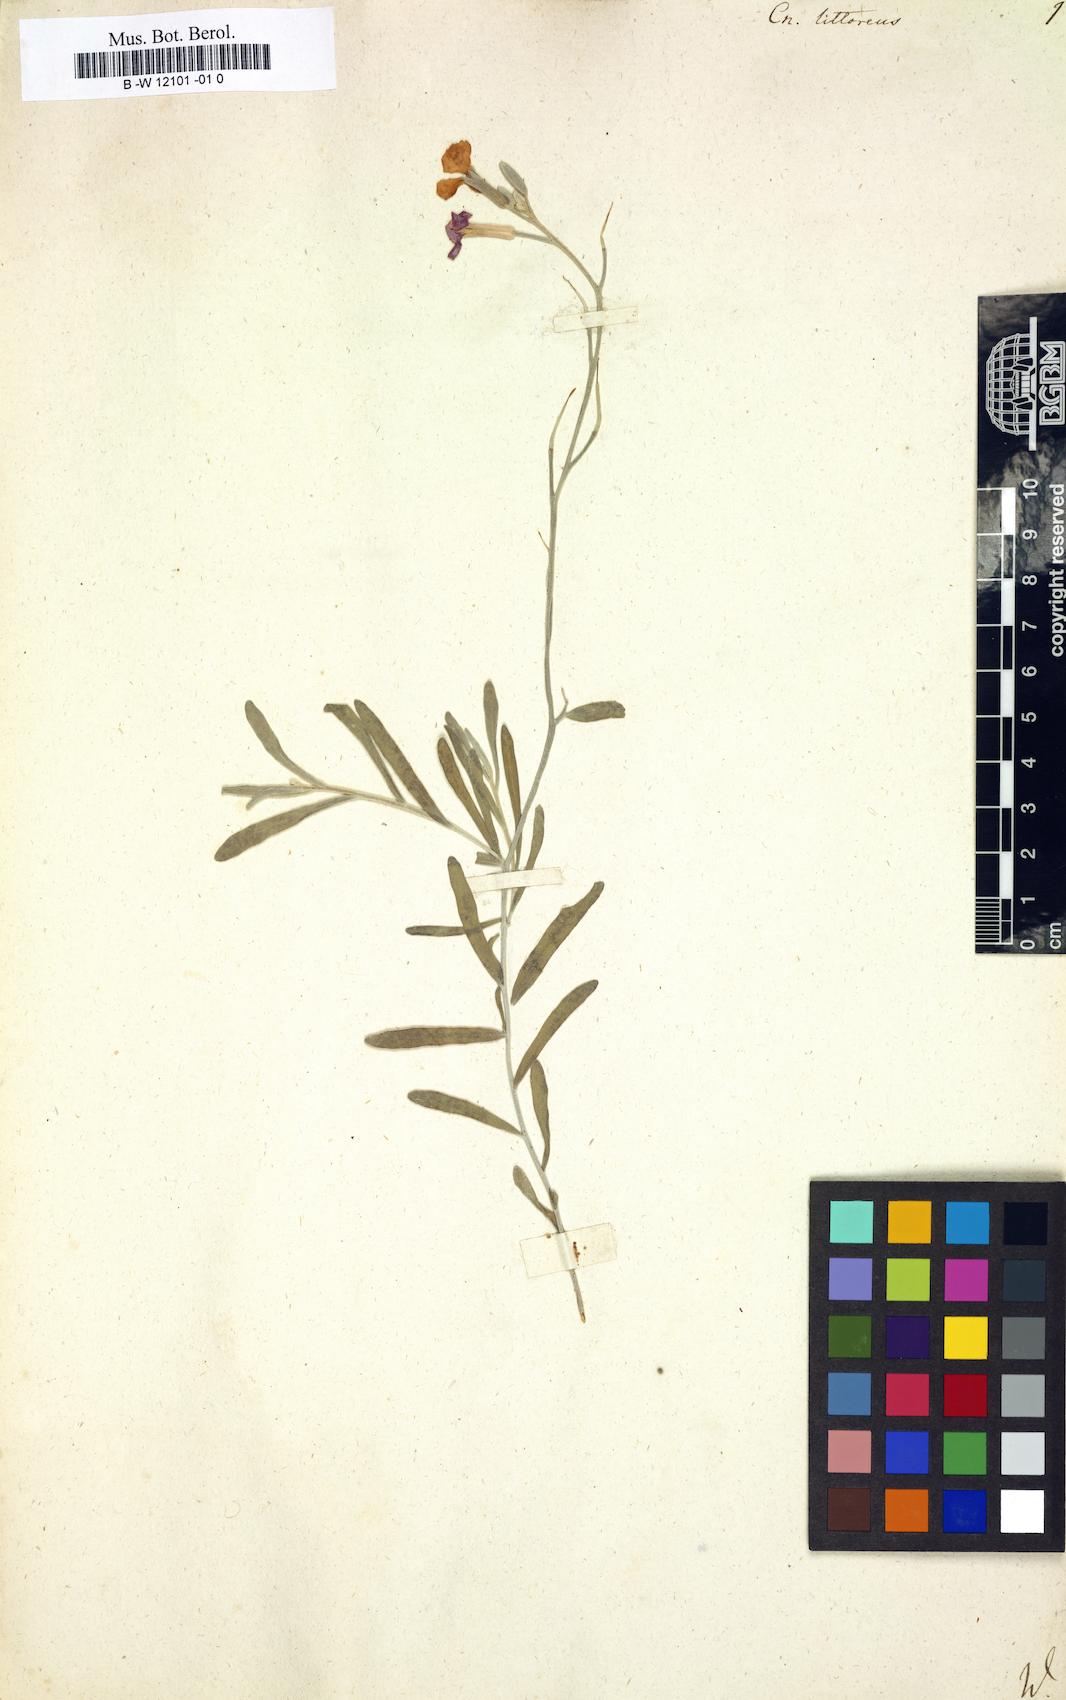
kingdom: Plantae
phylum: Tracheophyta
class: Magnoliopsida
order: Brassicales
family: Brassicaceae
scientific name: Brassicaceae
